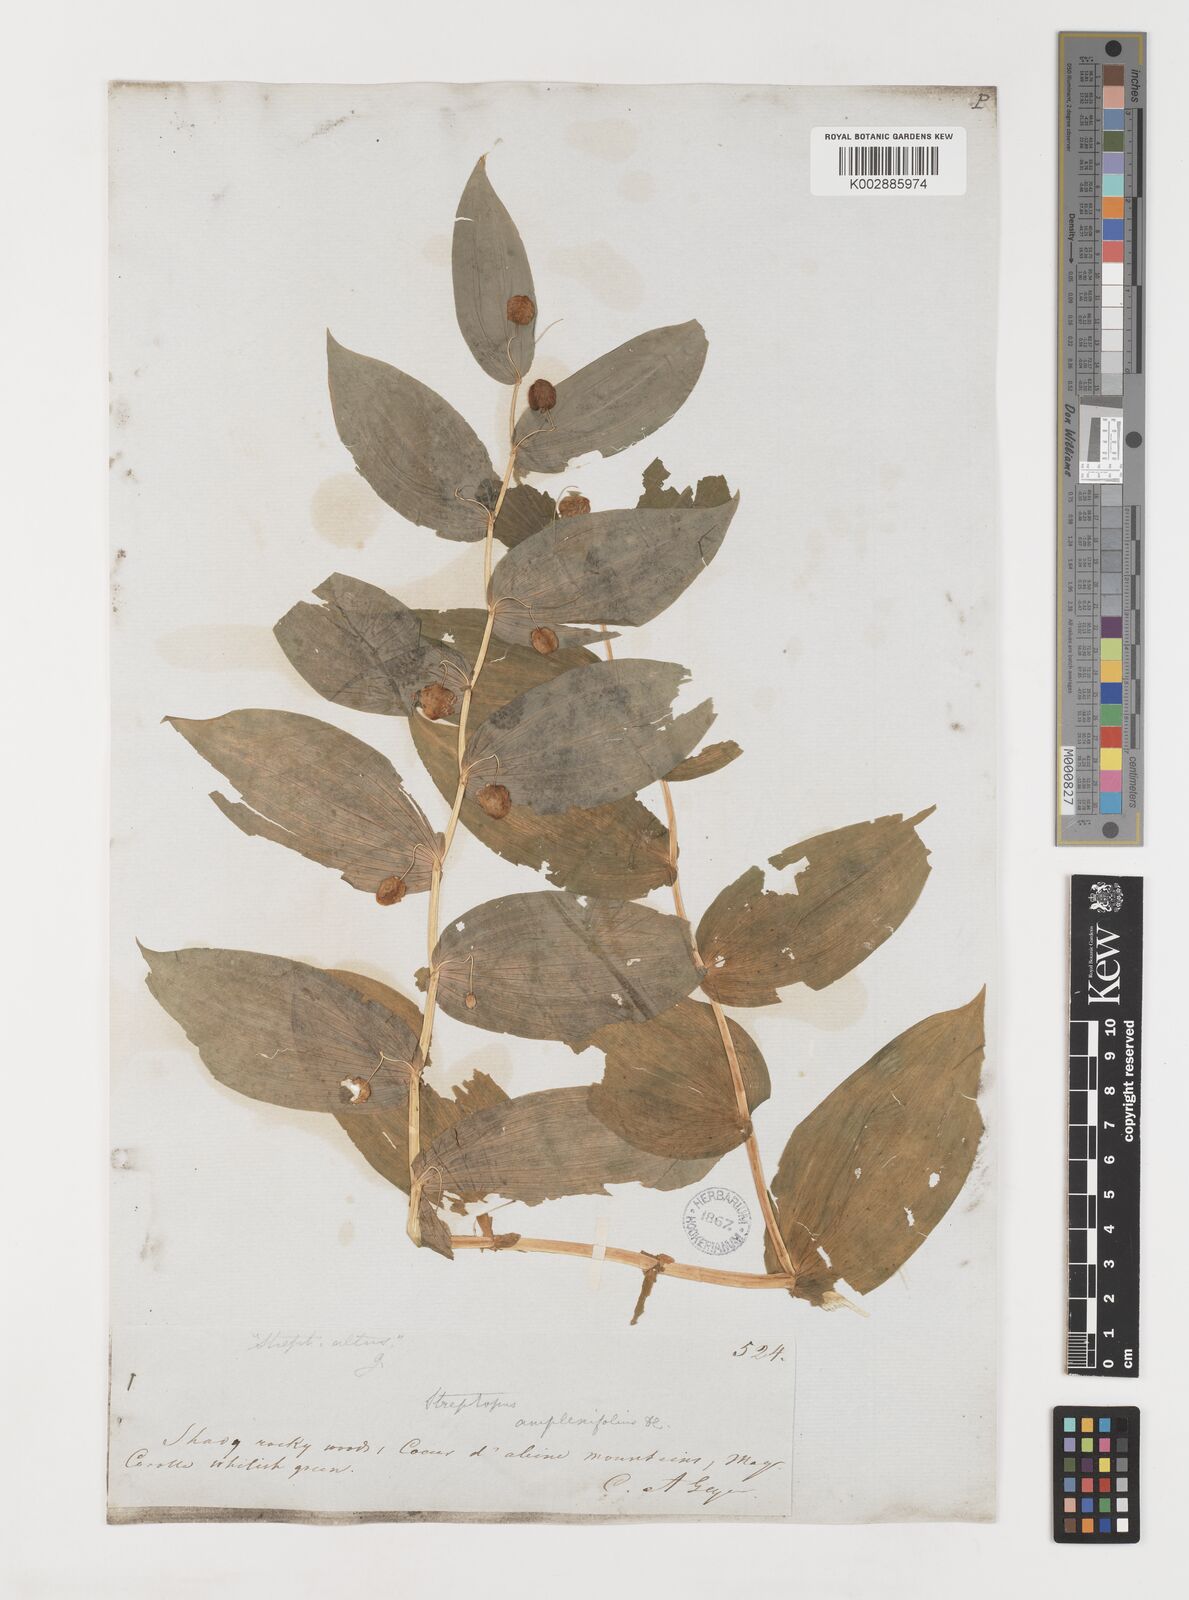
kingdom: Plantae
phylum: Tracheophyta
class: Liliopsida
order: Liliales
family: Liliaceae
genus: Streptopus
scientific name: Streptopus amplexifolius
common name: Clasp twisted stalk
